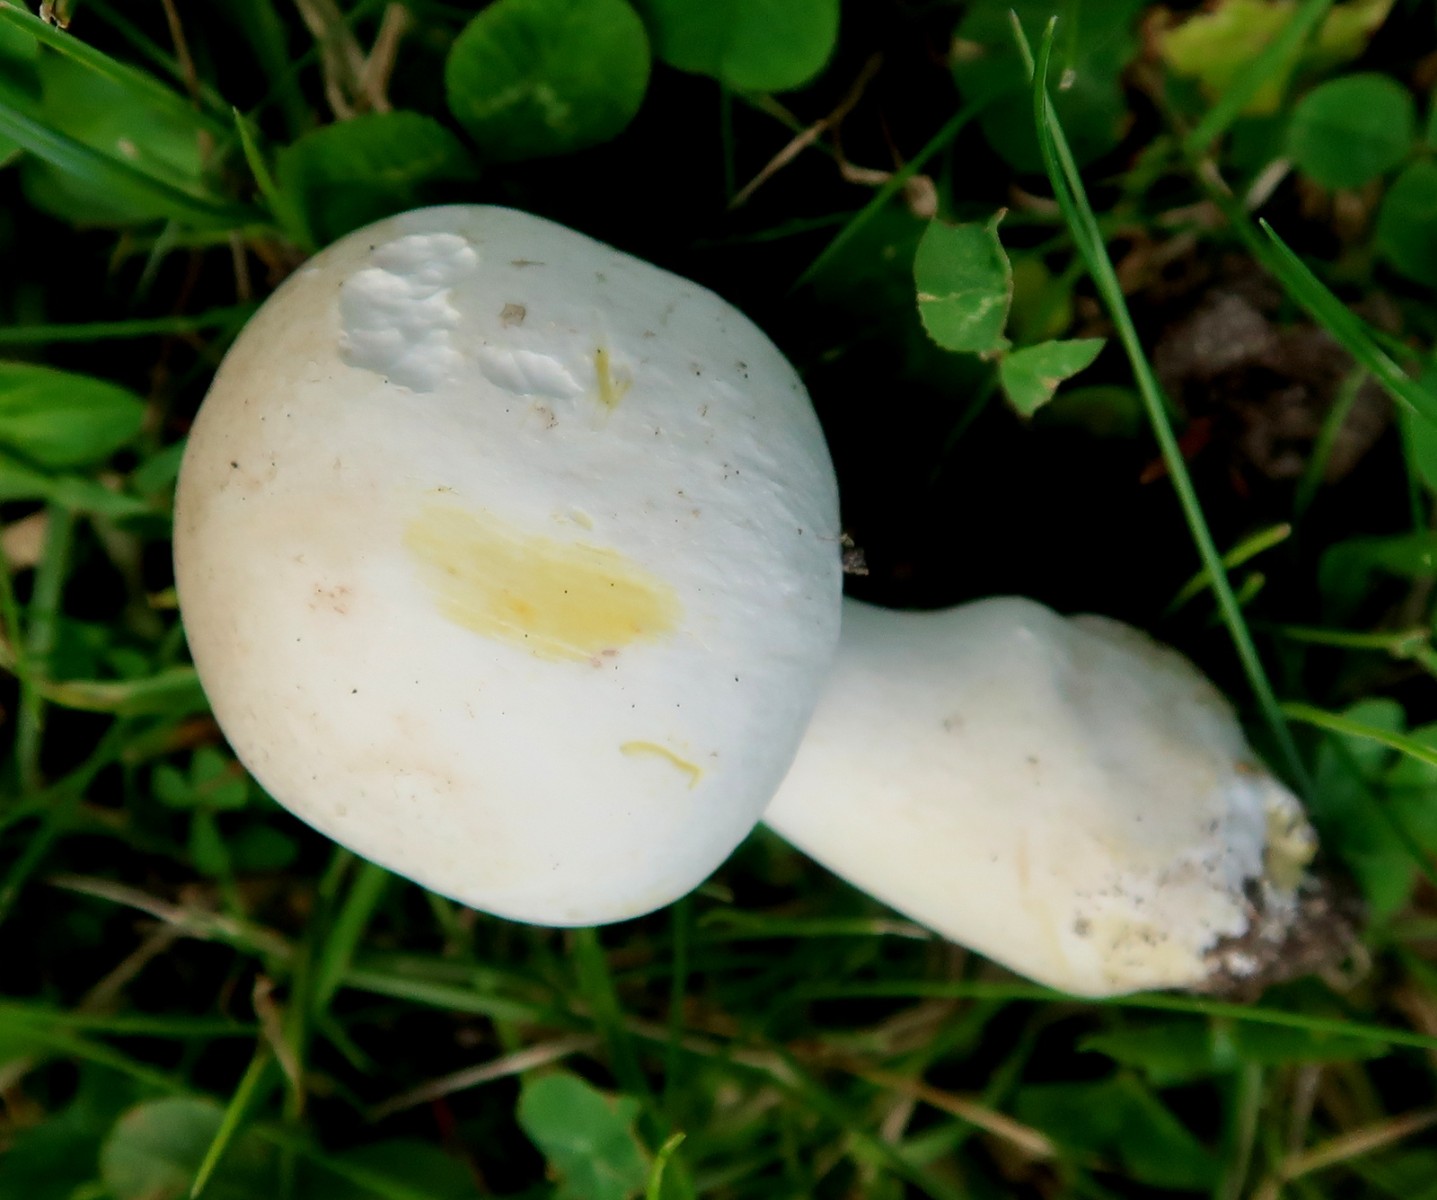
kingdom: Fungi
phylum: Basidiomycota
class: Agaricomycetes
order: Agaricales
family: Agaricaceae
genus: Agaricus
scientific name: Agaricus xanthodermus
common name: karbol-champignon
